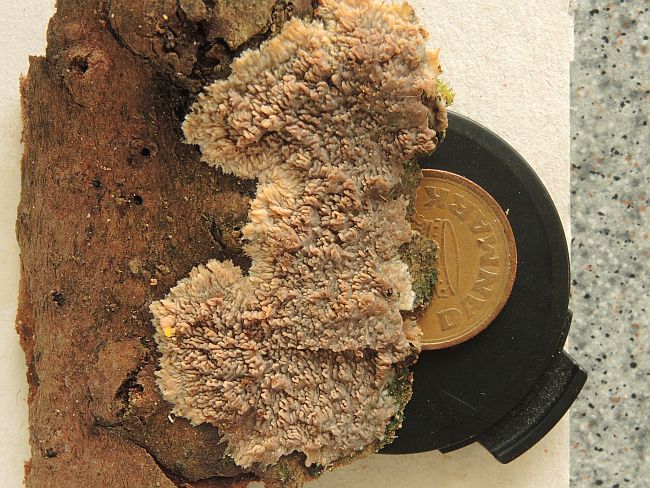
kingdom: Fungi
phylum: Basidiomycota
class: Agaricomycetes
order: Polyporales
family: Meruliaceae
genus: Phlebia
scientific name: Phlebia radiata
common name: stråle-åresvamp
